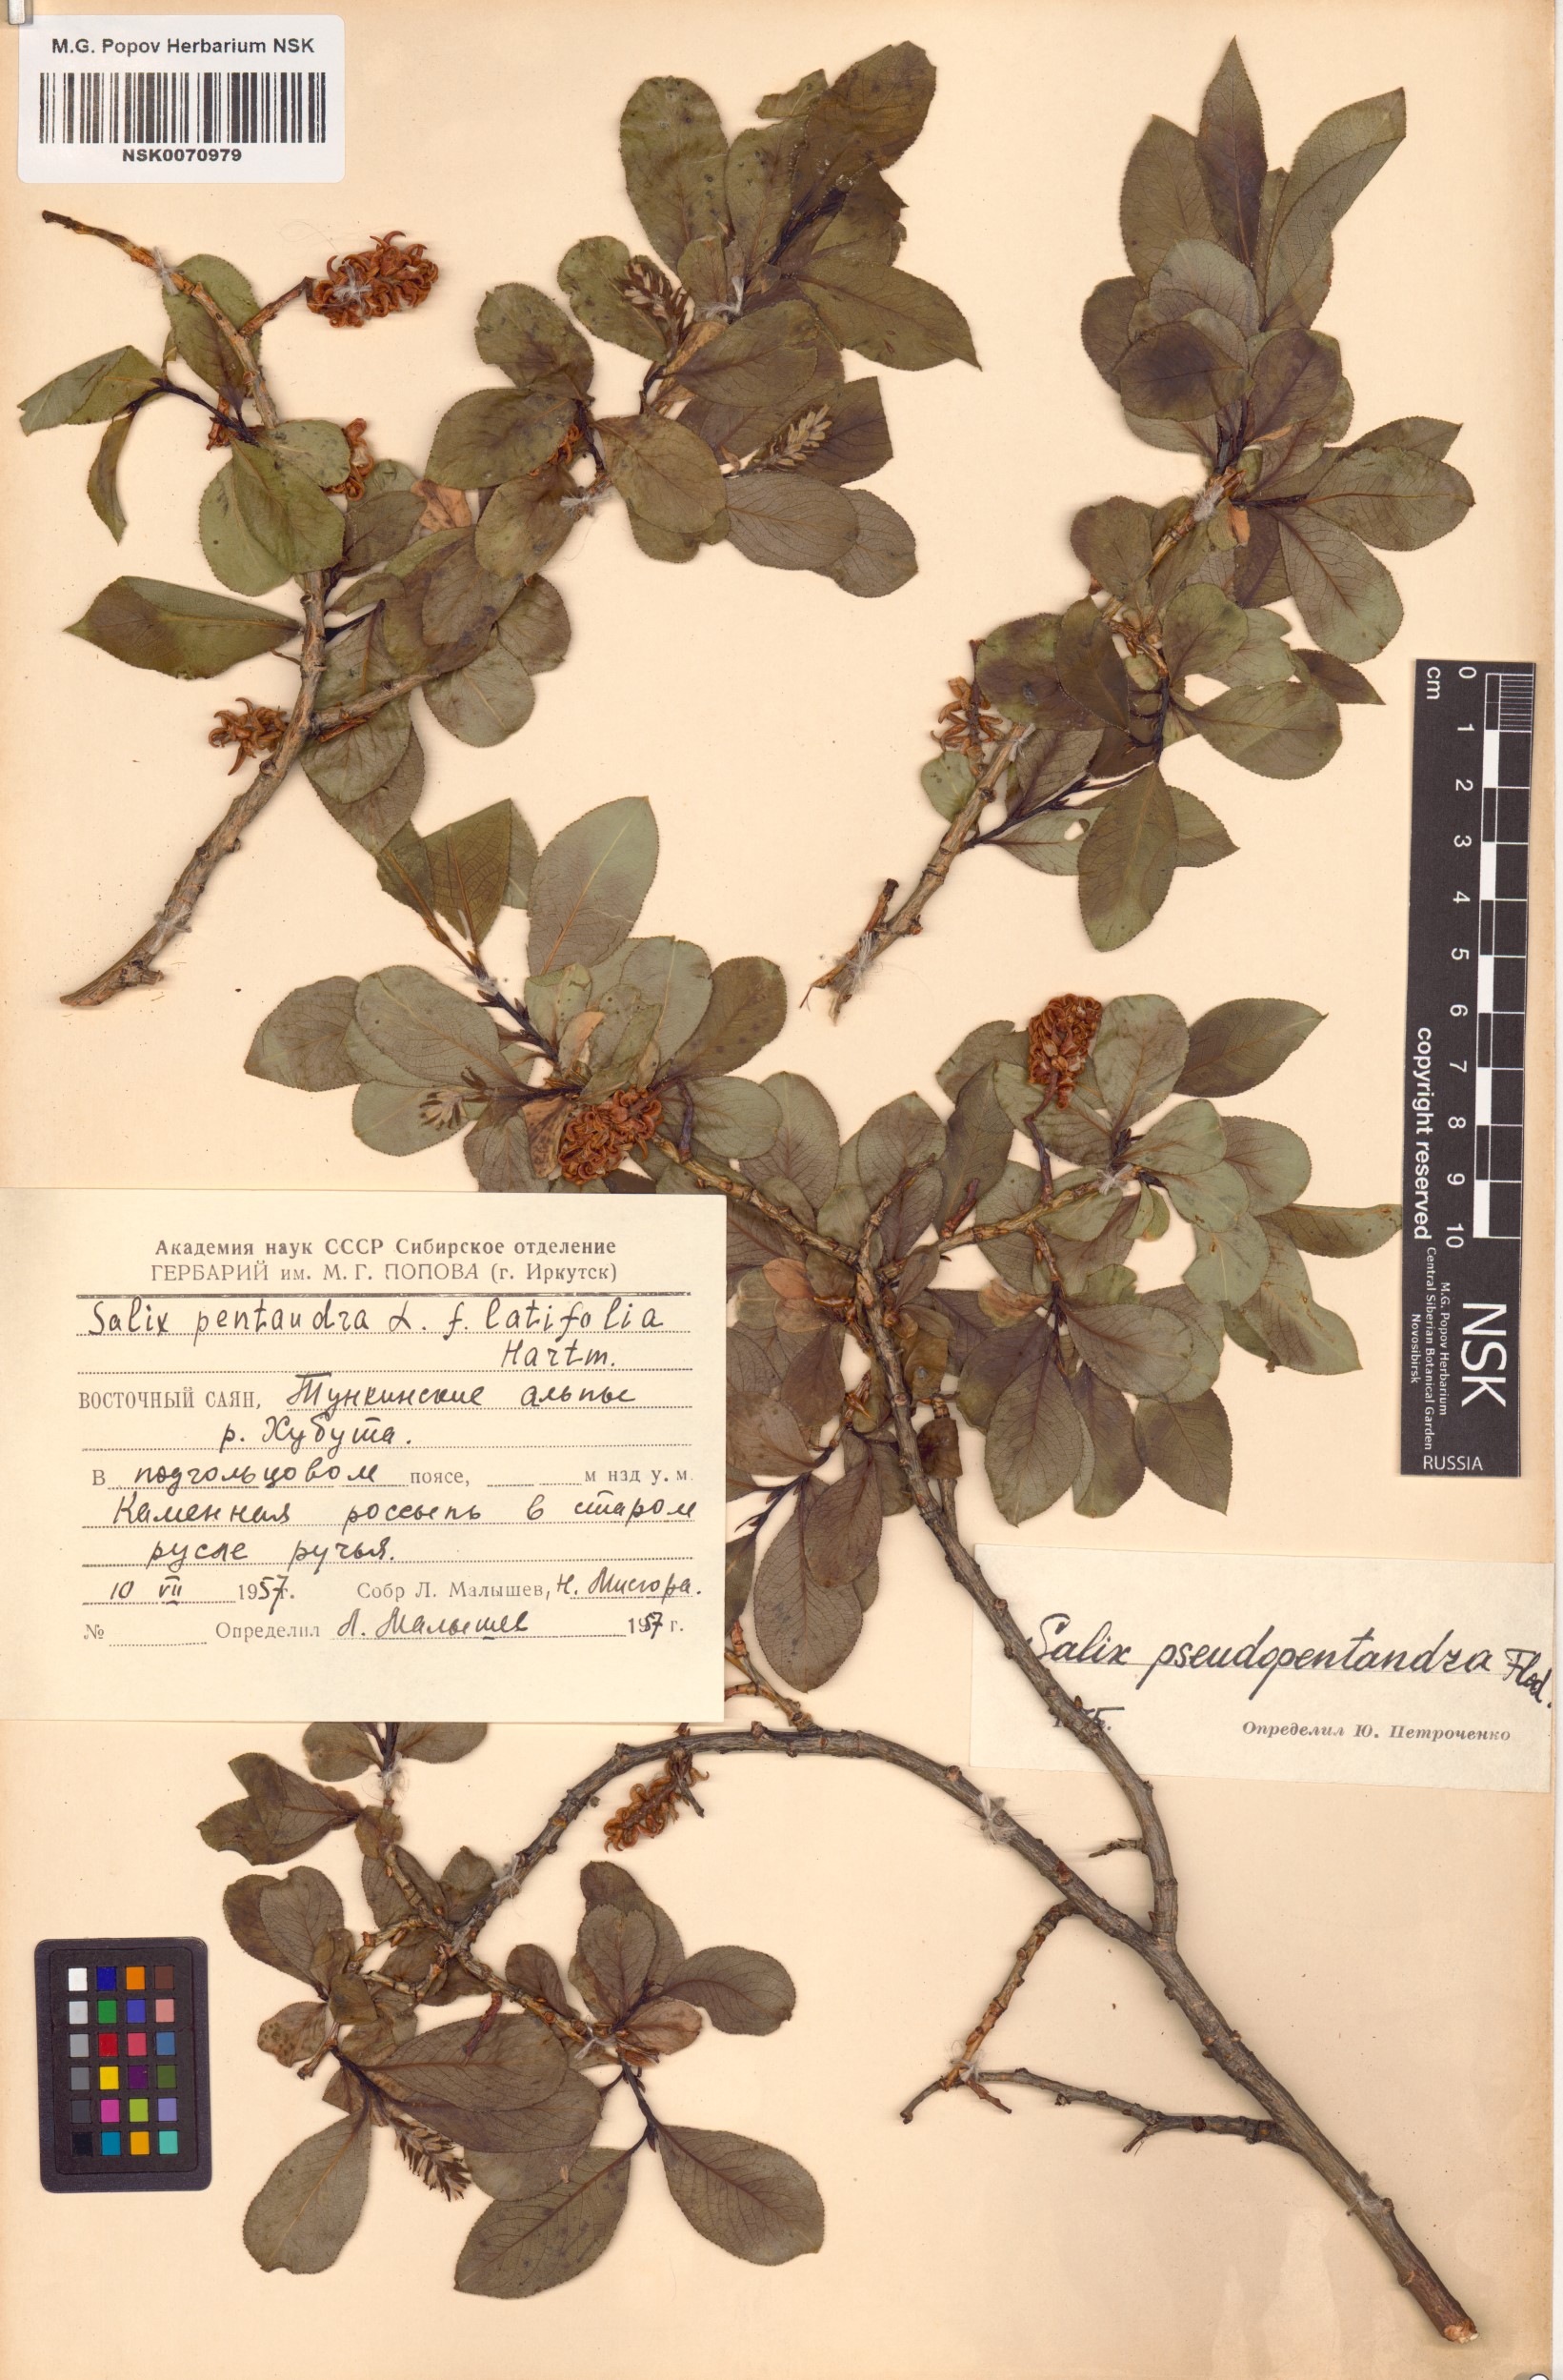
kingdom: Plantae
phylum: Tracheophyta
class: Magnoliopsida
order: Malpighiales
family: Salicaceae
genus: Salix
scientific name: Salix pseudopentandra
